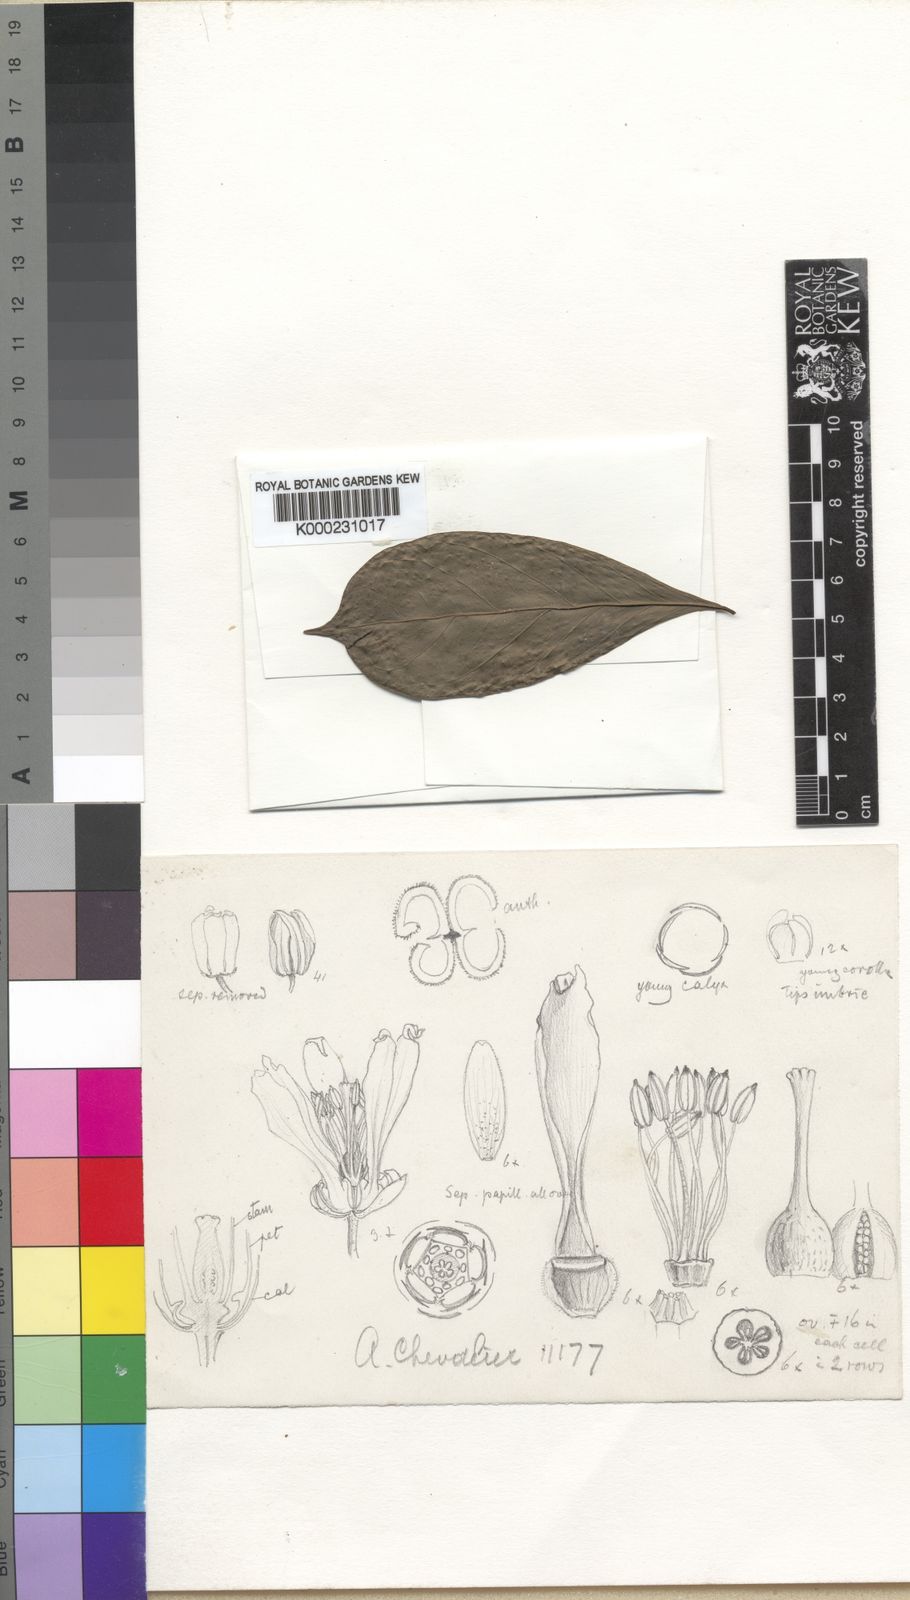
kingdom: Plantae
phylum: Tracheophyta
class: Magnoliopsida
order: Brassicales
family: Pentadiplandraceae
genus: Pentadiplandra
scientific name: Pentadiplandra brazzeana
